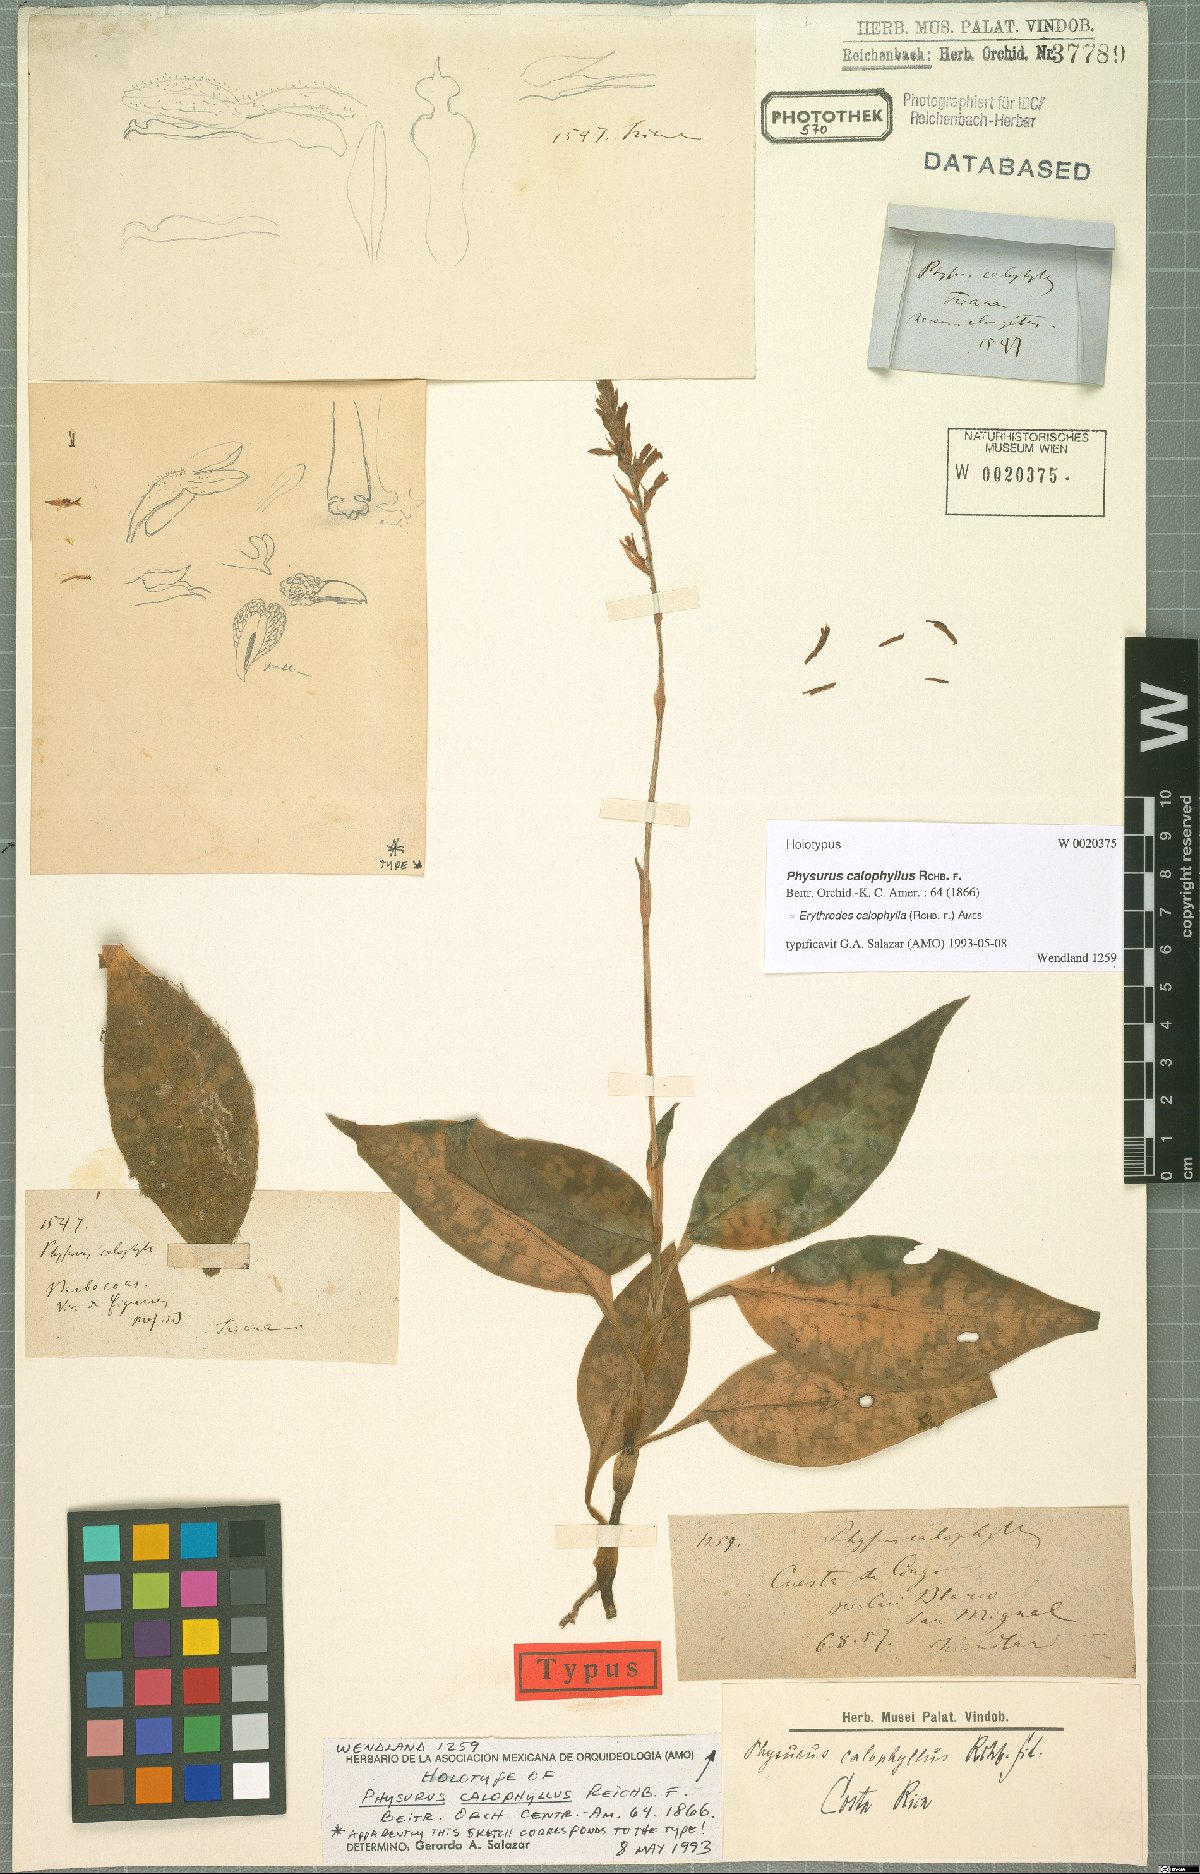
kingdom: Plantae
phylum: Tracheophyta
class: Liliopsida
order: Asparagales
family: Orchidaceae
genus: Microchilus
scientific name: Microchilus calophyllus
